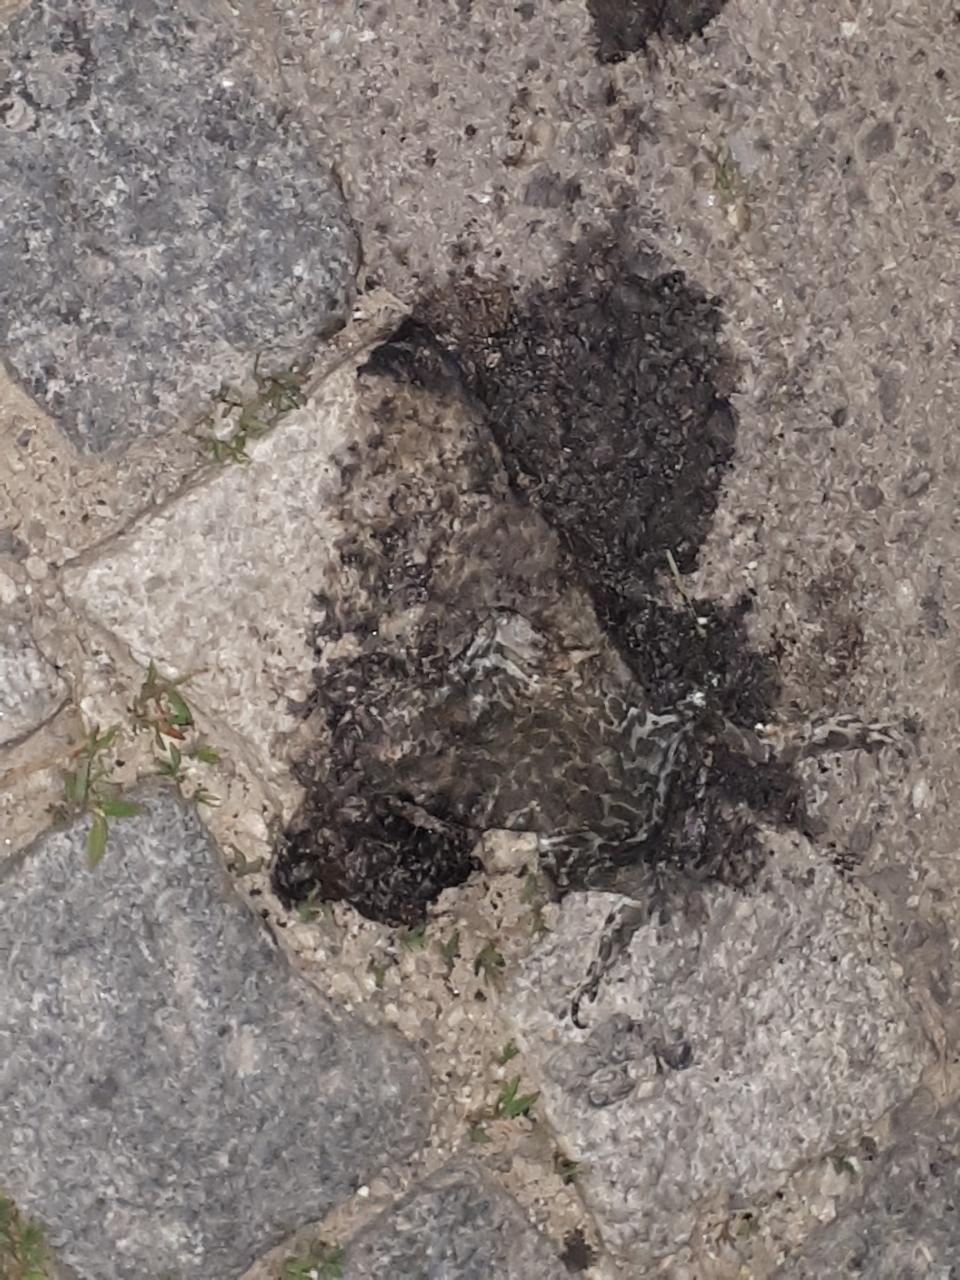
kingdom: Animalia
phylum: Chordata
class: Amphibia
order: Anura
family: Bufonidae
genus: Bufotes
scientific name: Bufotes viridis
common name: European green toad
